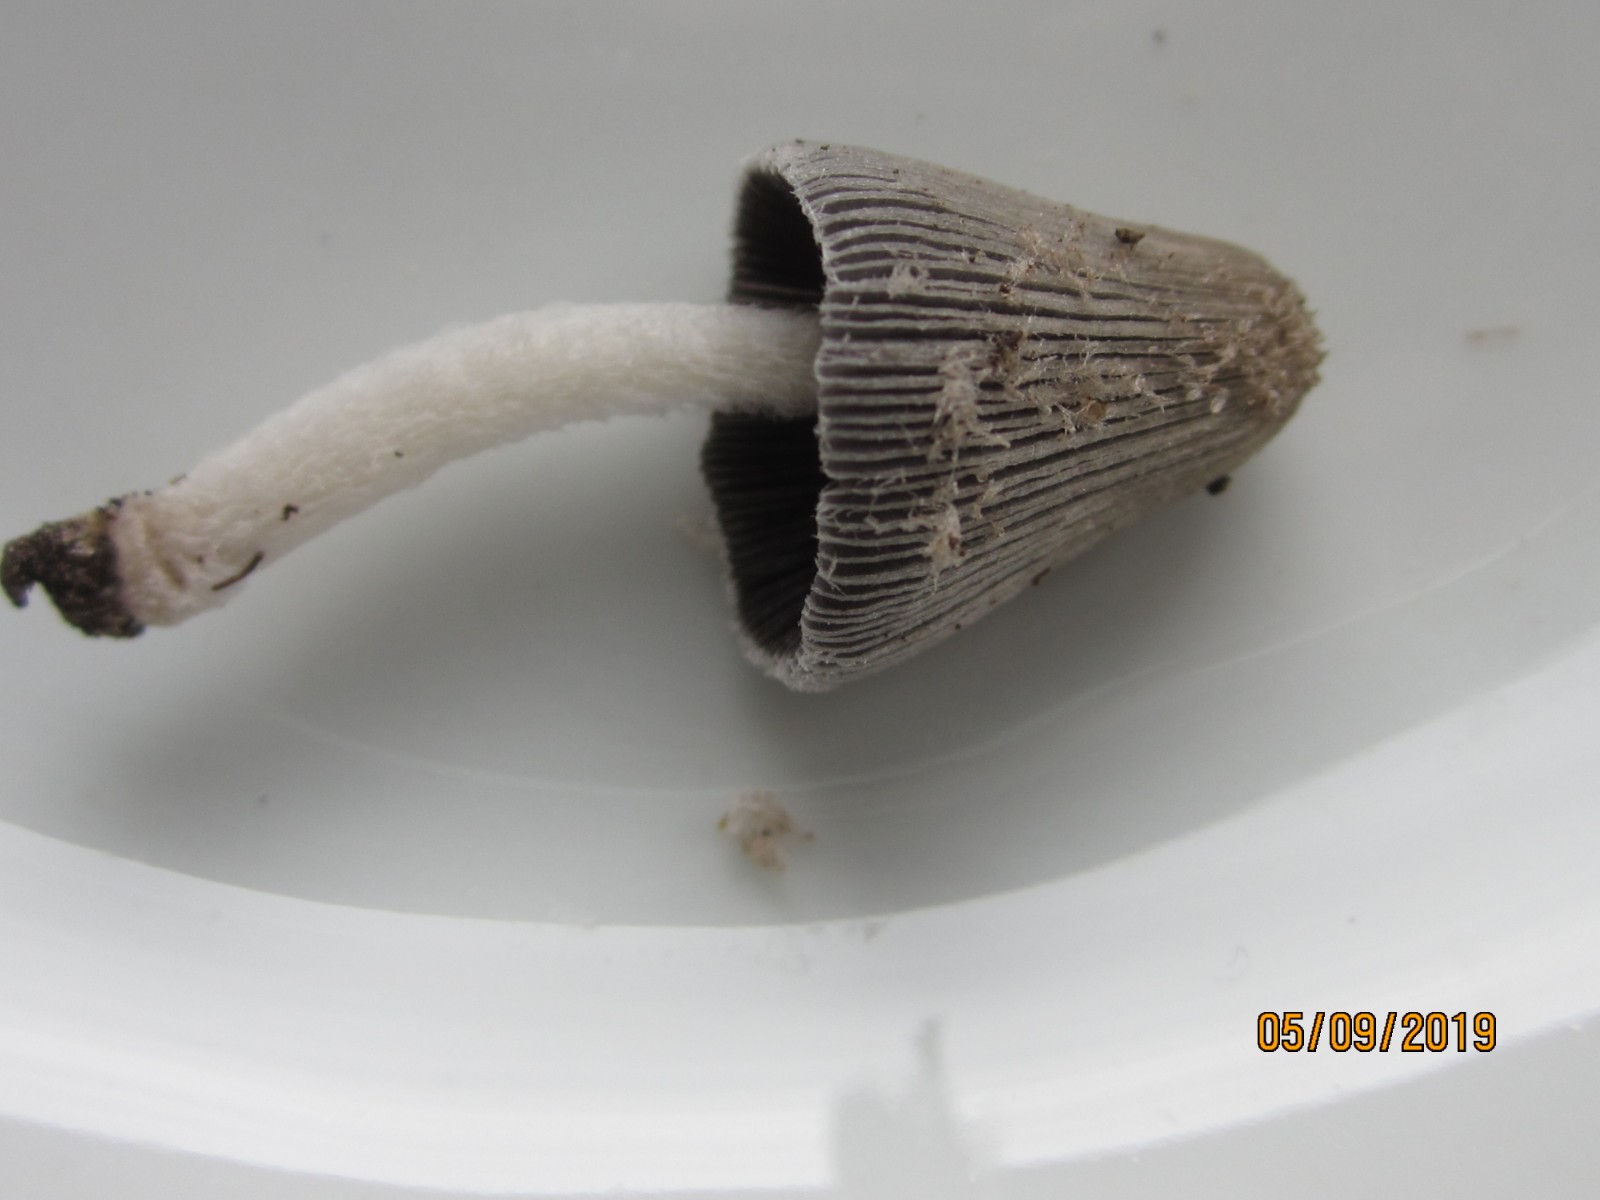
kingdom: Fungi
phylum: Basidiomycota
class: Agaricomycetes
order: Agaricales
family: Psathyrellaceae
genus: Coprinopsis
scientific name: Coprinopsis lagopus
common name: dunstokket blækhat
